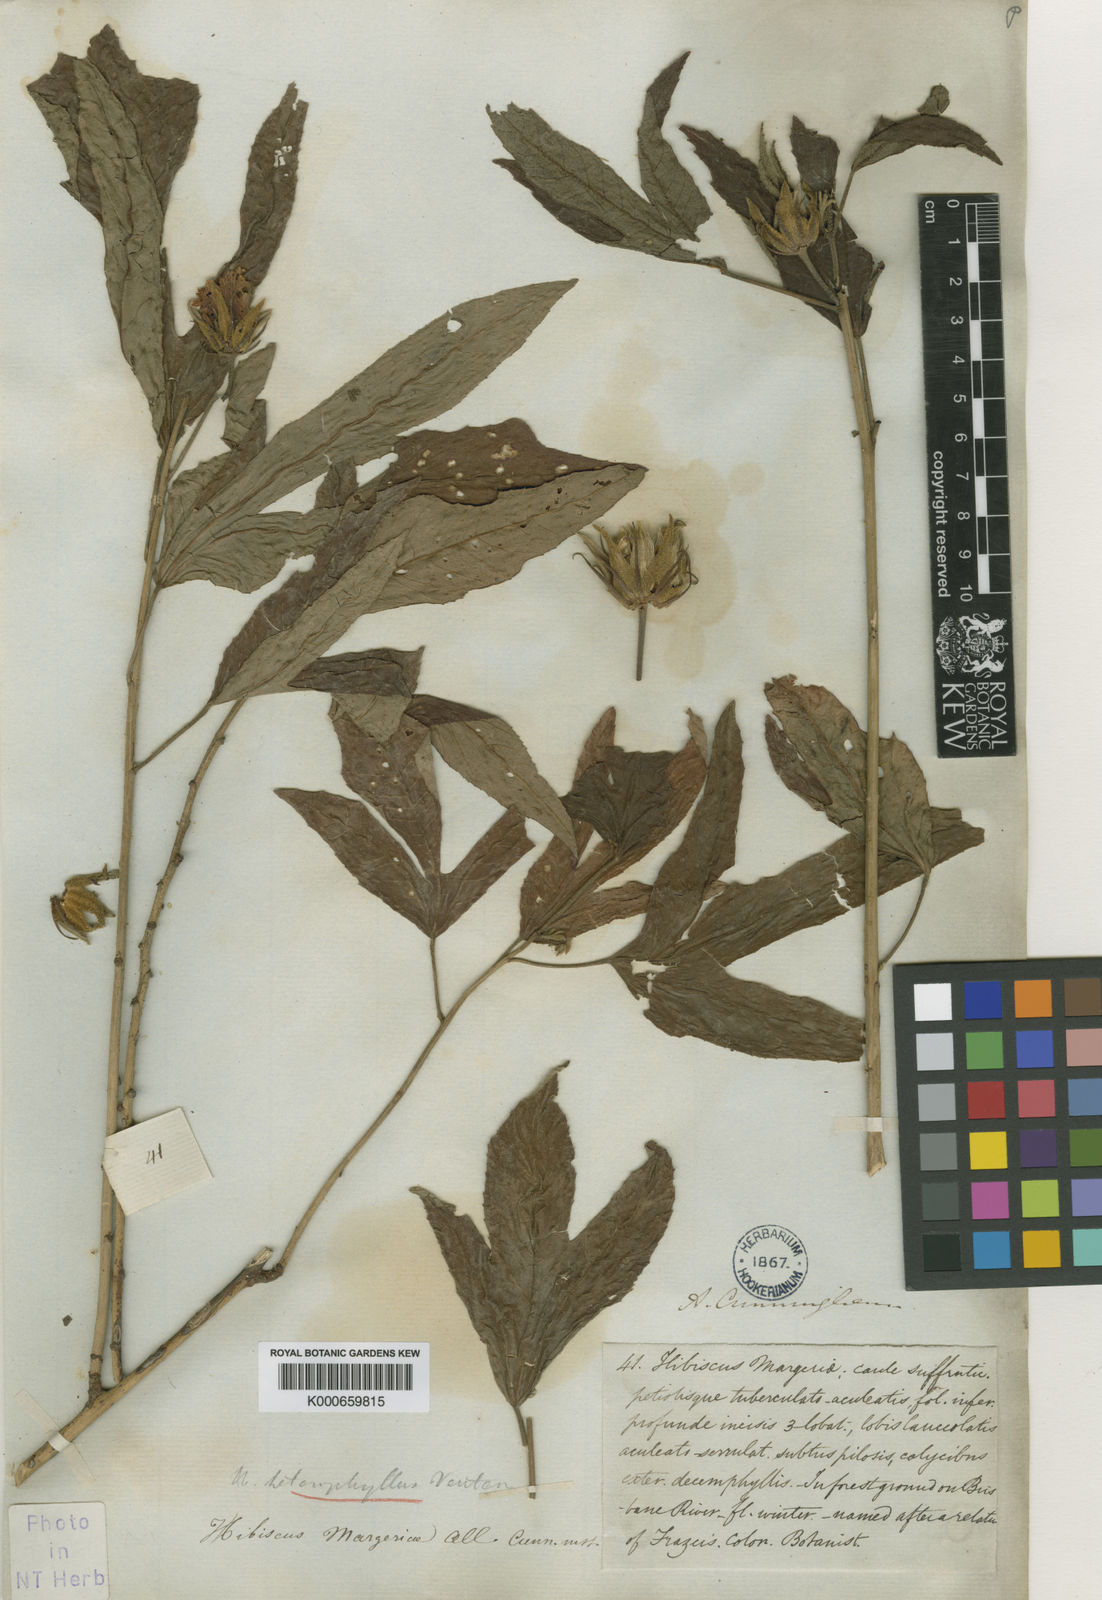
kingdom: Plantae
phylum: Tracheophyta
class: Magnoliopsida
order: Malvales
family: Malvaceae
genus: Hibiscus
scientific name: Hibiscus heterophyllus
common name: Queensland-sorrel
